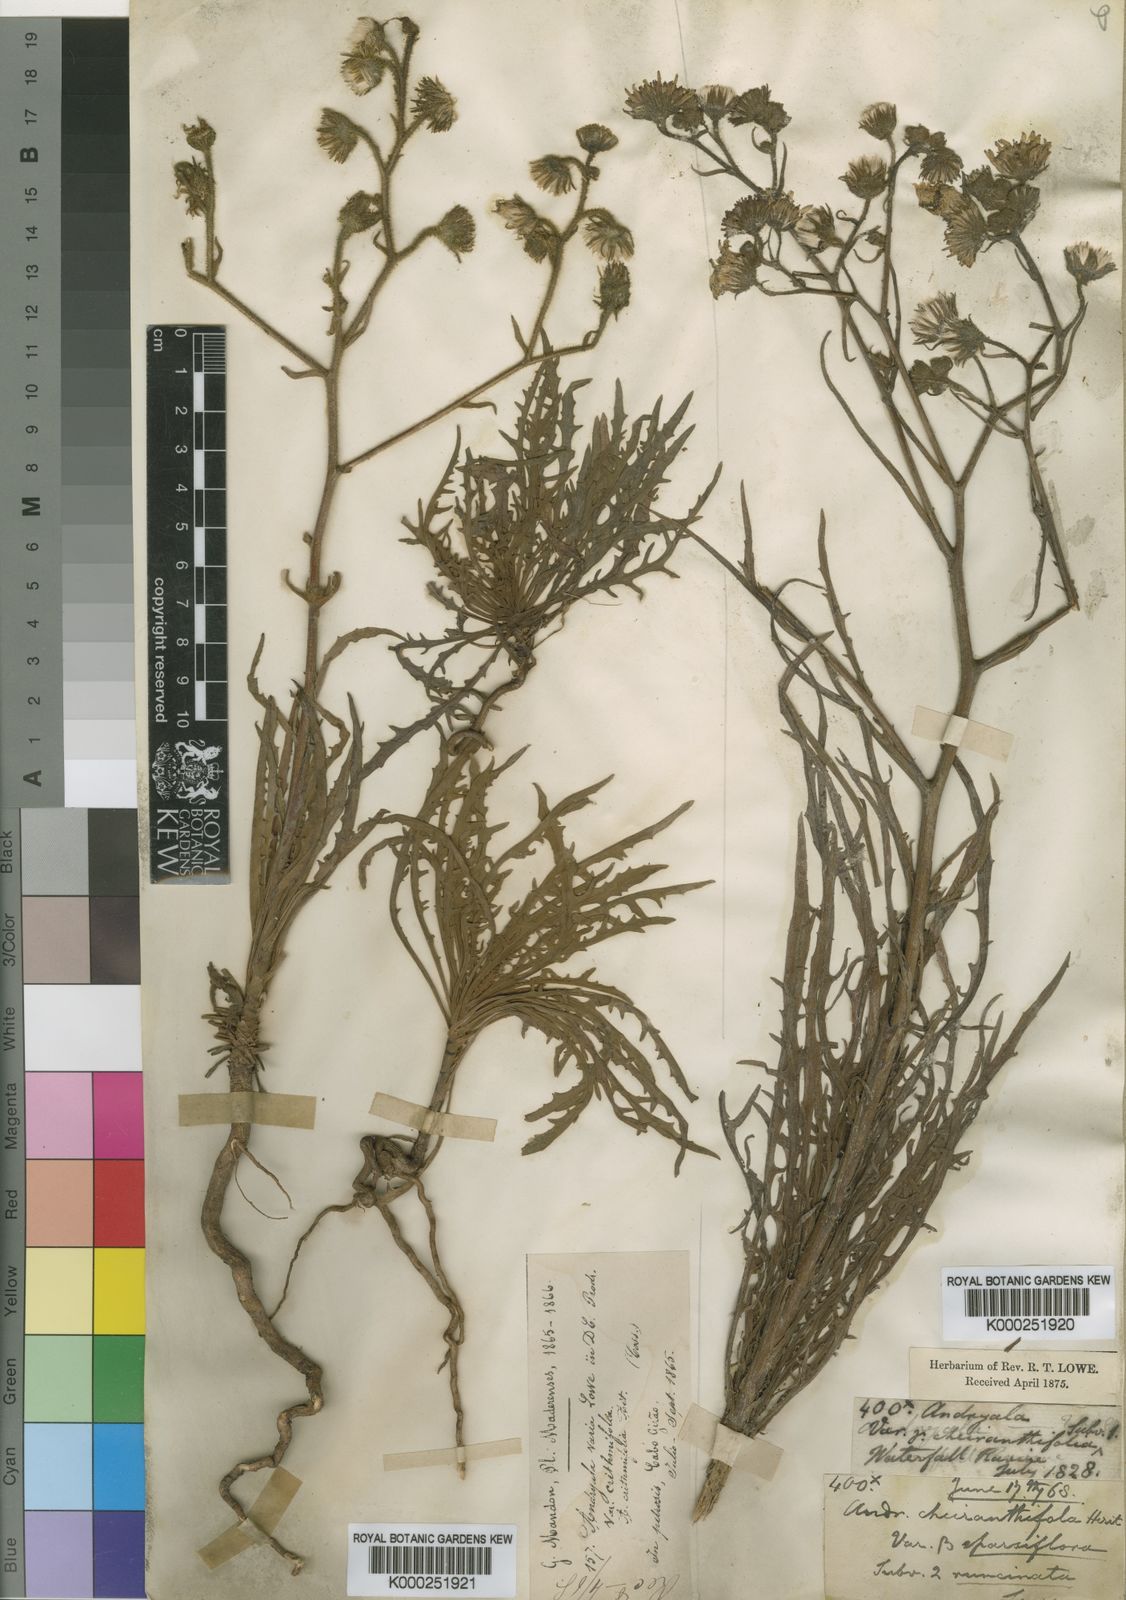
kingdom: Plantae
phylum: Tracheophyta
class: Magnoliopsida
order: Asterales
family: Asteraceae
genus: Andryala
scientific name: Andryala glandulosa
